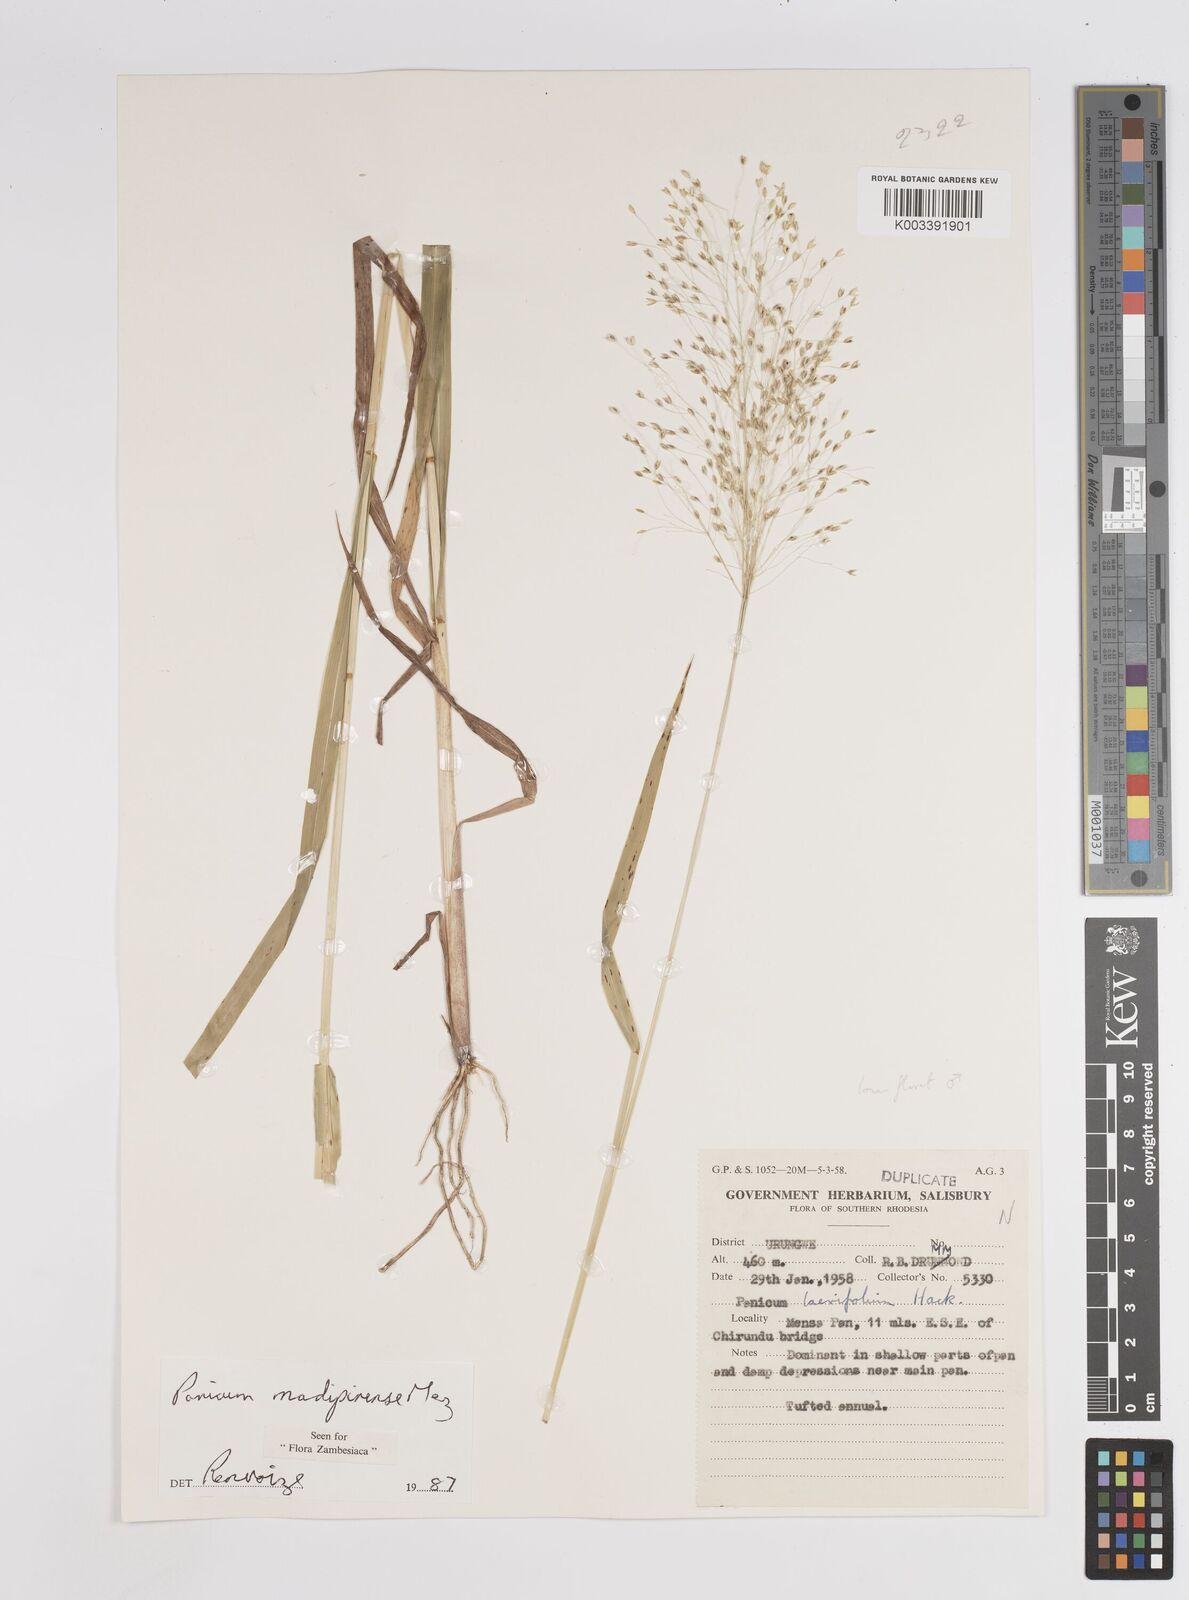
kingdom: Plantae
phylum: Tracheophyta
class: Liliopsida
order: Poales
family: Poaceae
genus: Panicum
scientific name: Panicum madipirense
